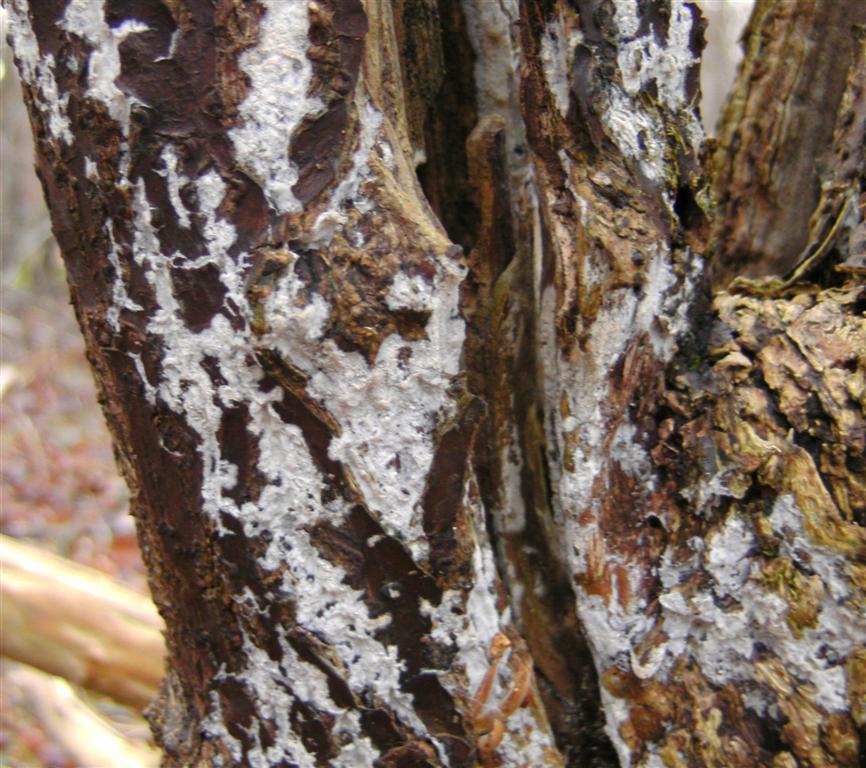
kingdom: Fungi
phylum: Basidiomycota
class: Agaricomycetes
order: Corticiales
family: Corticiaceae
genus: Lyomyces
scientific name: Lyomyces sambuci
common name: almindelig hyldehinde
